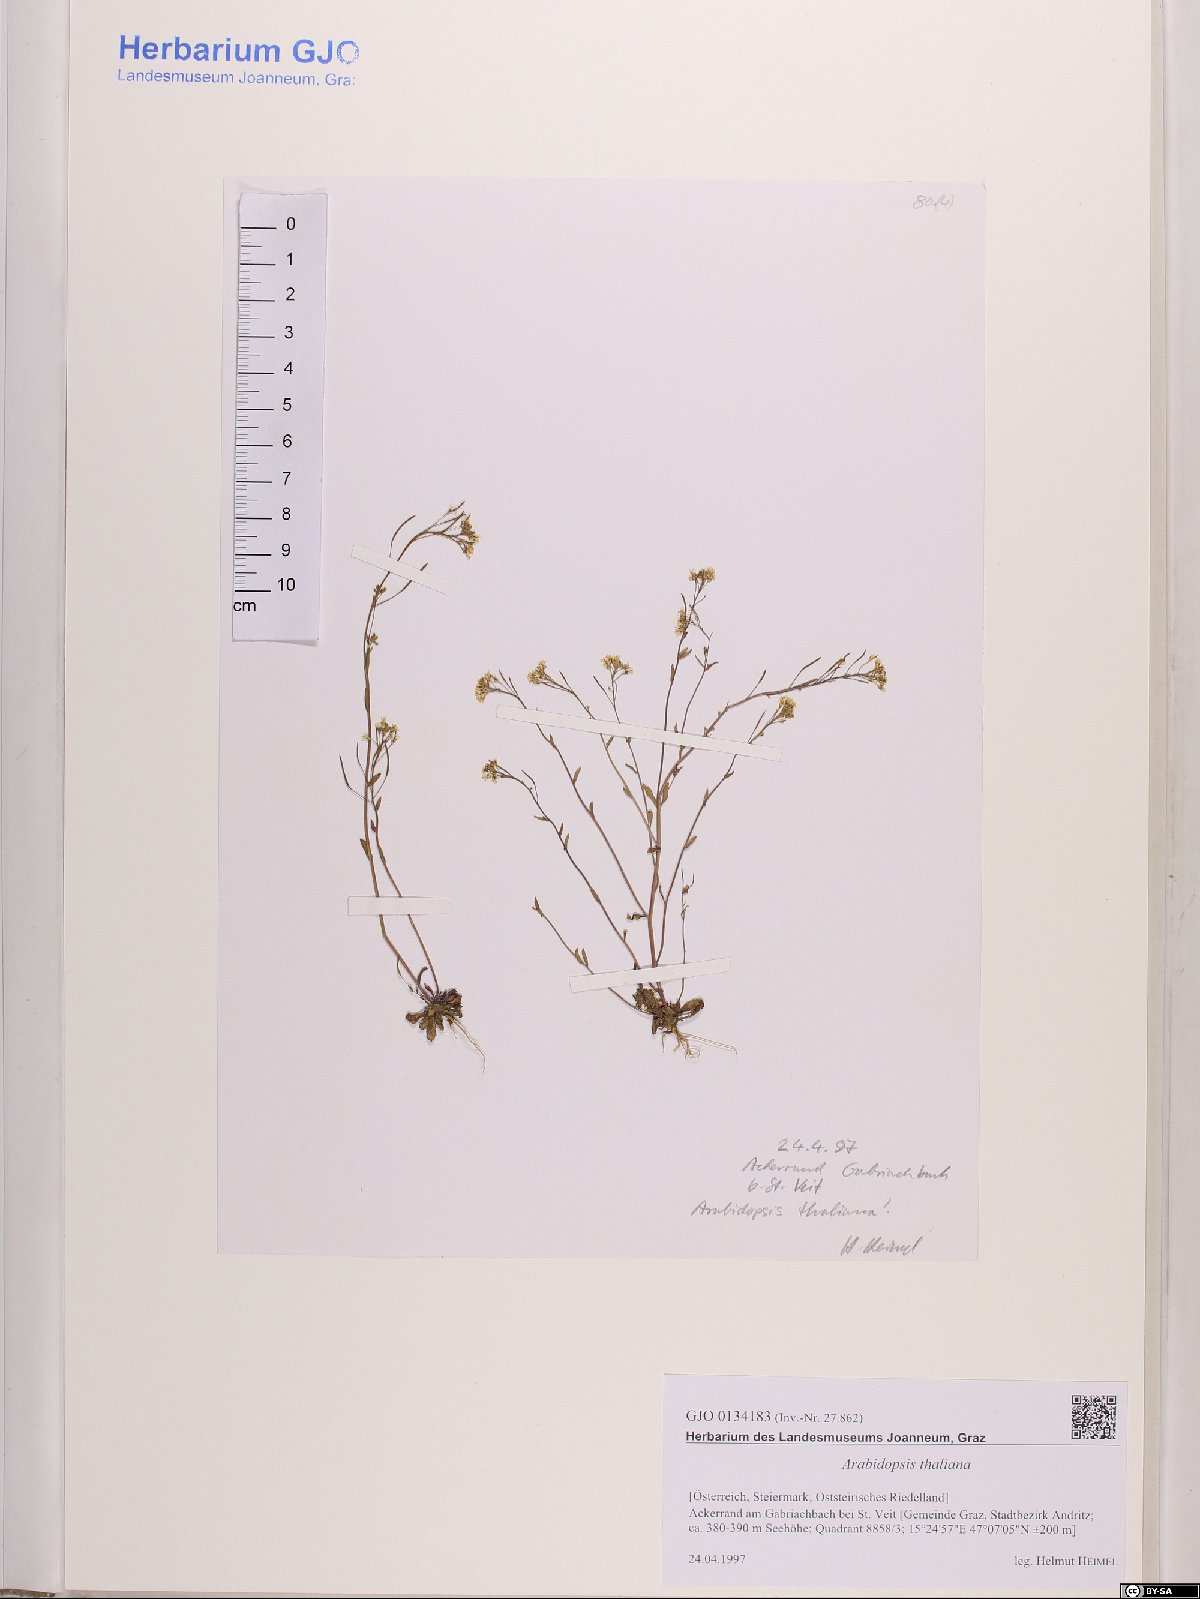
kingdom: Plantae
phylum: Tracheophyta
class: Magnoliopsida
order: Brassicales
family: Brassicaceae
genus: Arabidopsis
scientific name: Arabidopsis thaliana
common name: Thale cress
